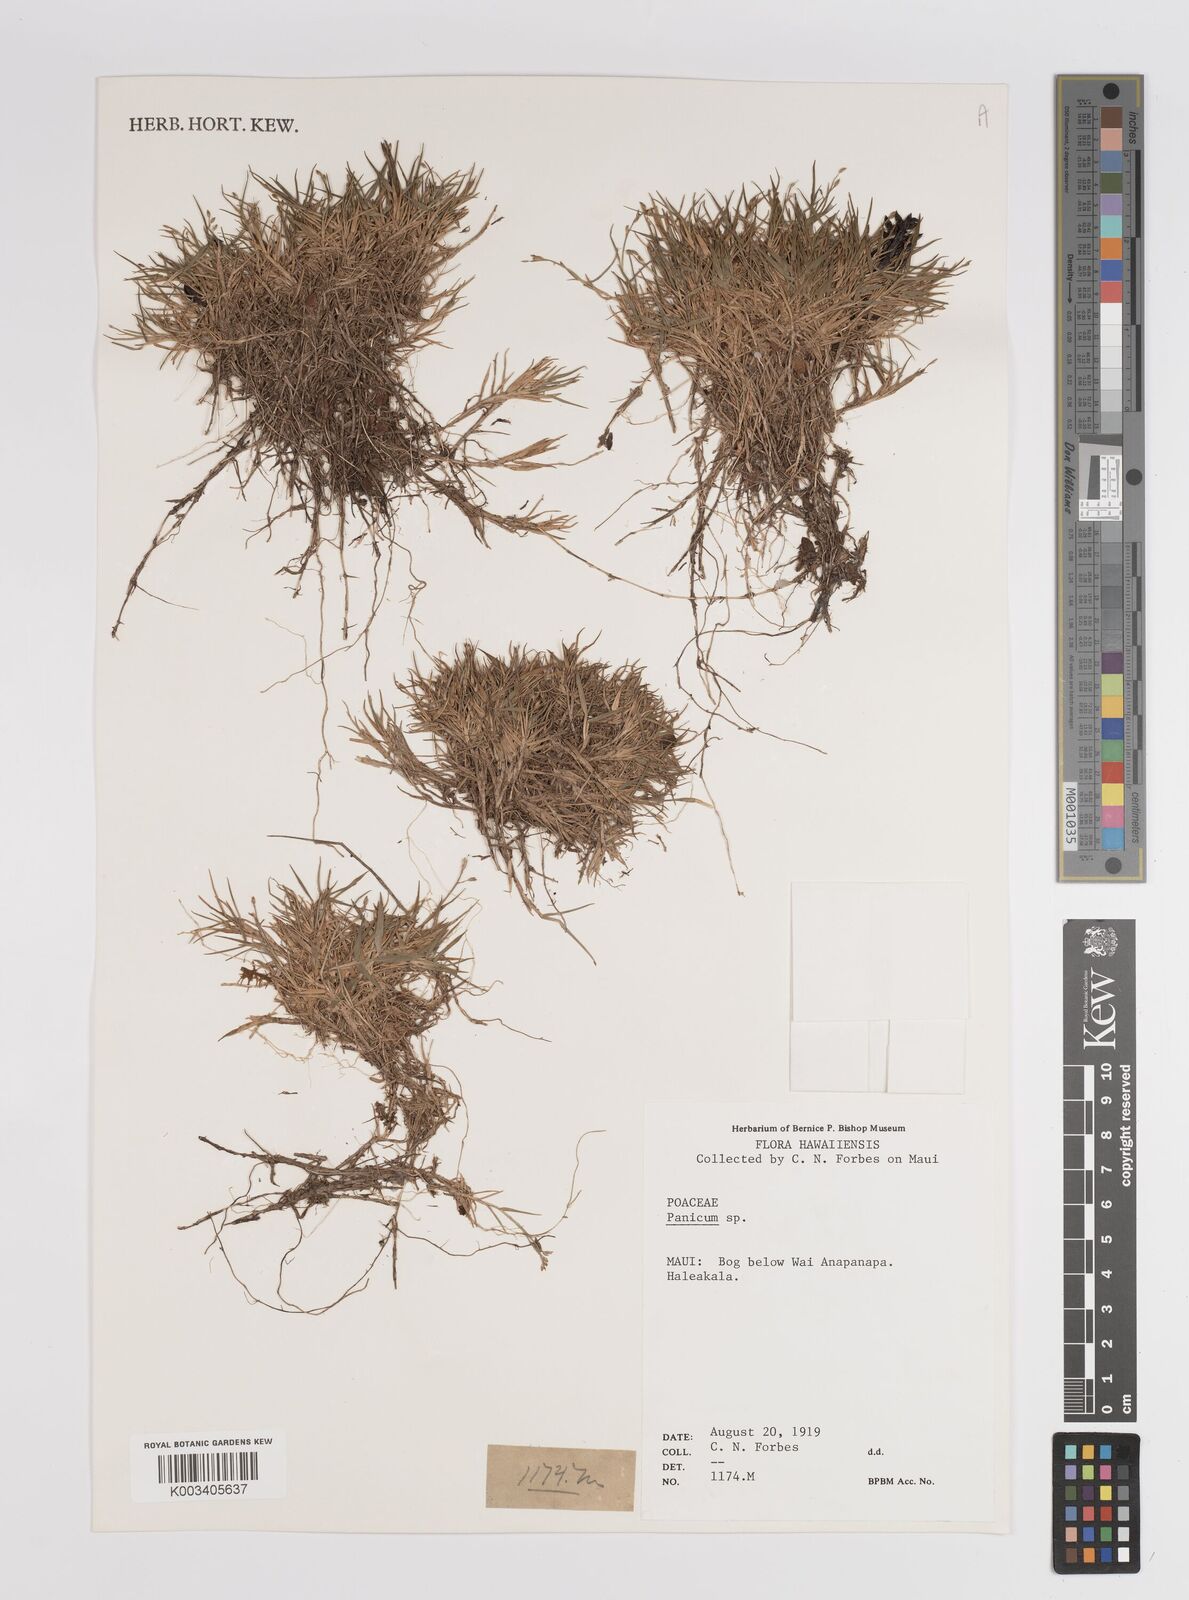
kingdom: Plantae
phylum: Tracheophyta
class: Liliopsida
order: Poales
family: Poaceae
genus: Dichanthelium
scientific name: Dichanthelium cynodon
